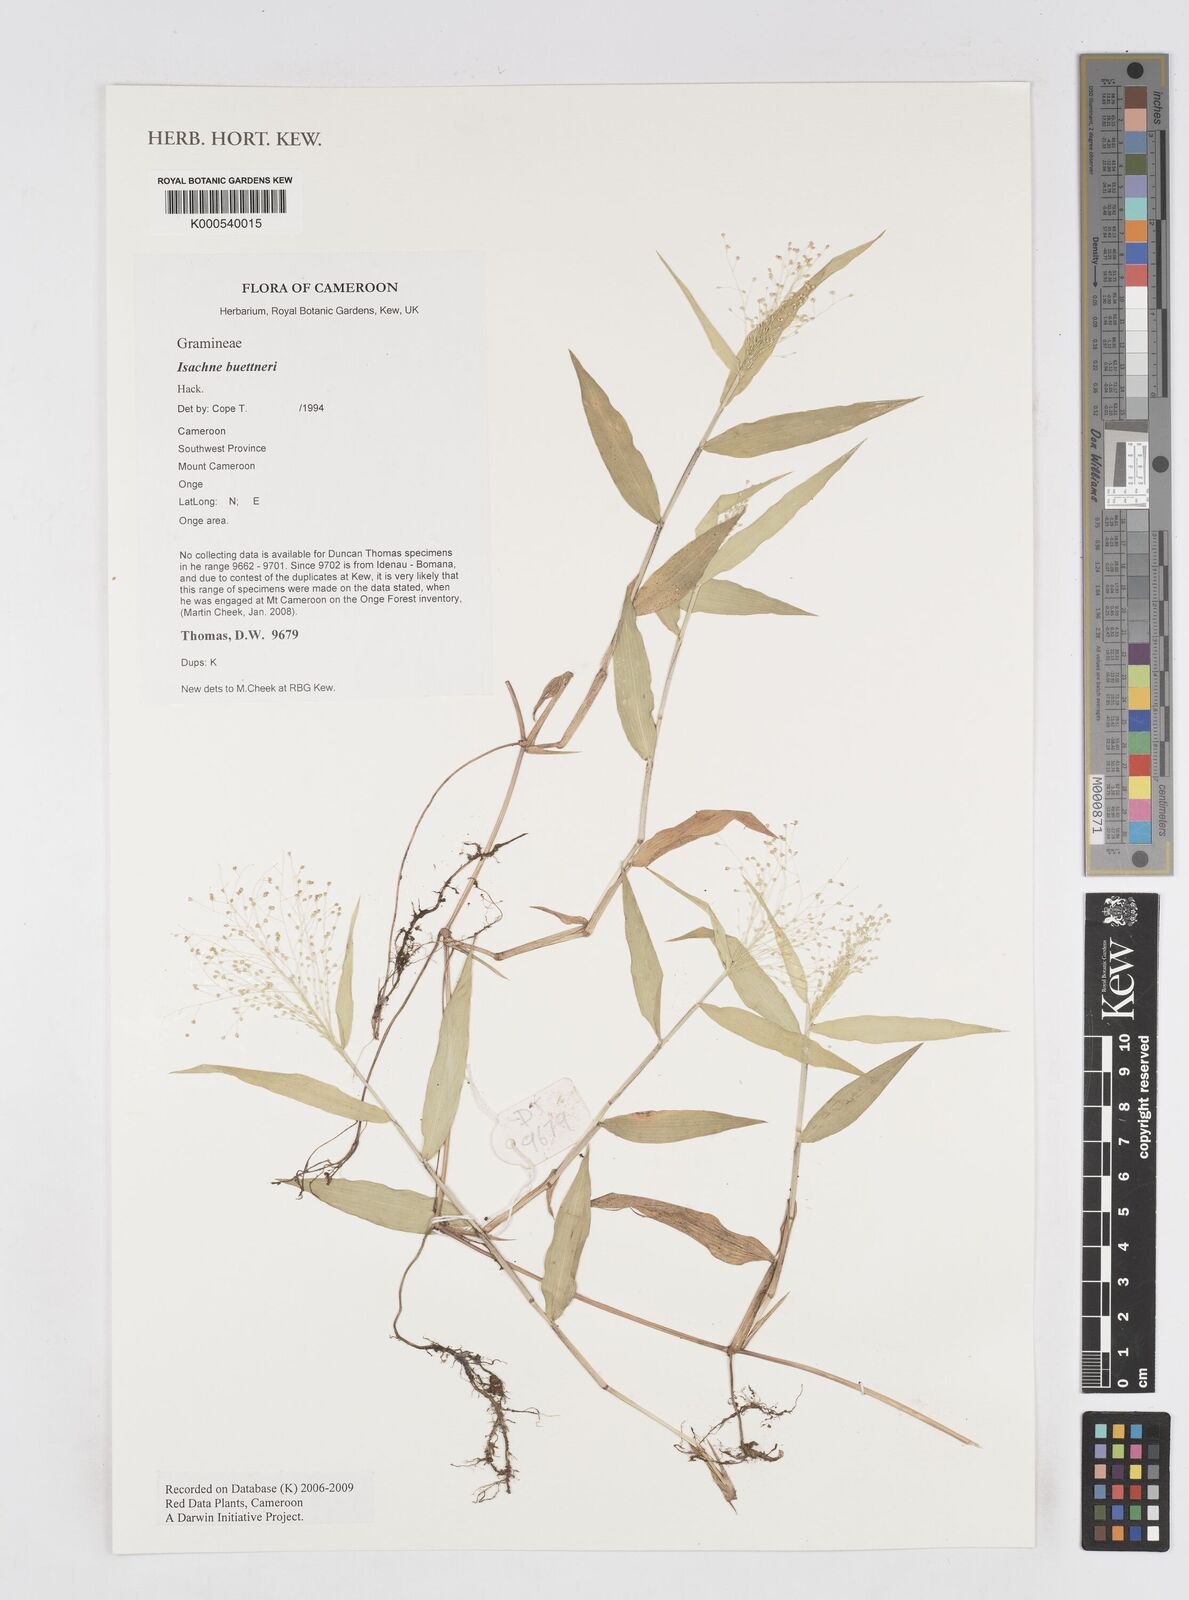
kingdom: Plantae
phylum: Tracheophyta
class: Liliopsida
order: Poales
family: Poaceae
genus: Isachne
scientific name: Isachne albens
